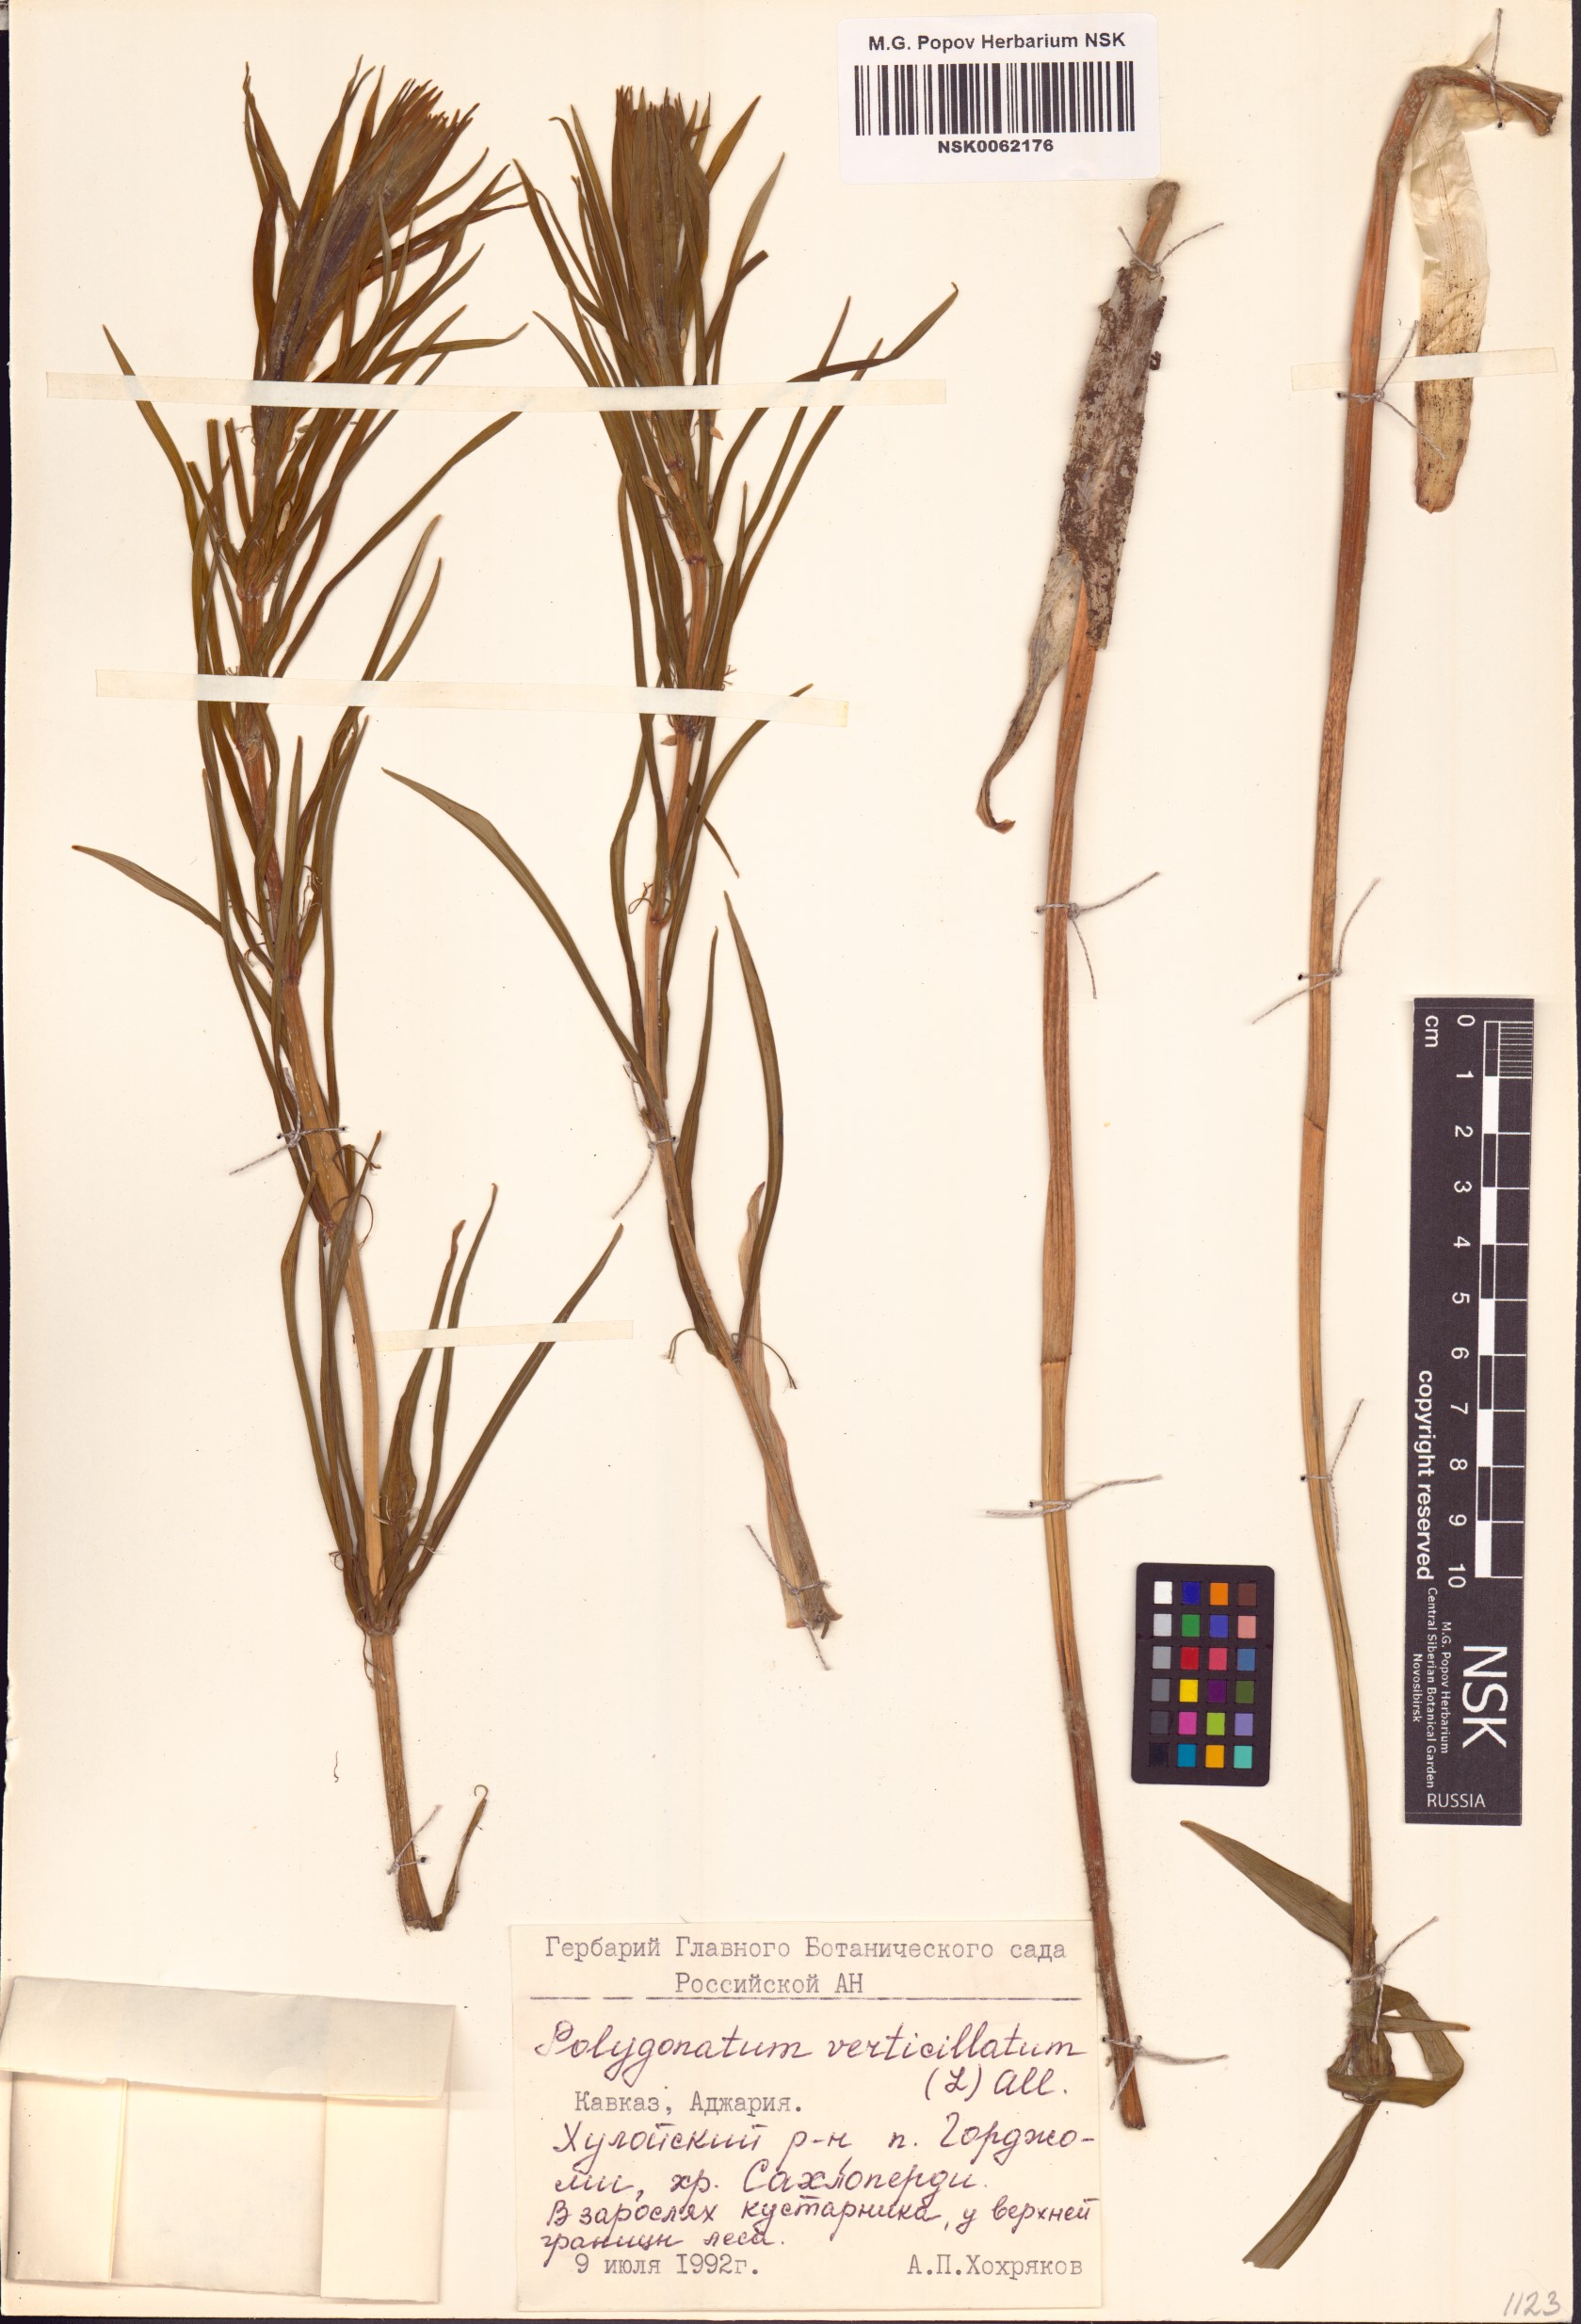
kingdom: Plantae
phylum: Tracheophyta
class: Liliopsida
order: Asparagales
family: Asparagaceae
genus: Polygonatum
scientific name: Polygonatum verticillatum
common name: Whorled solomon's-seal
